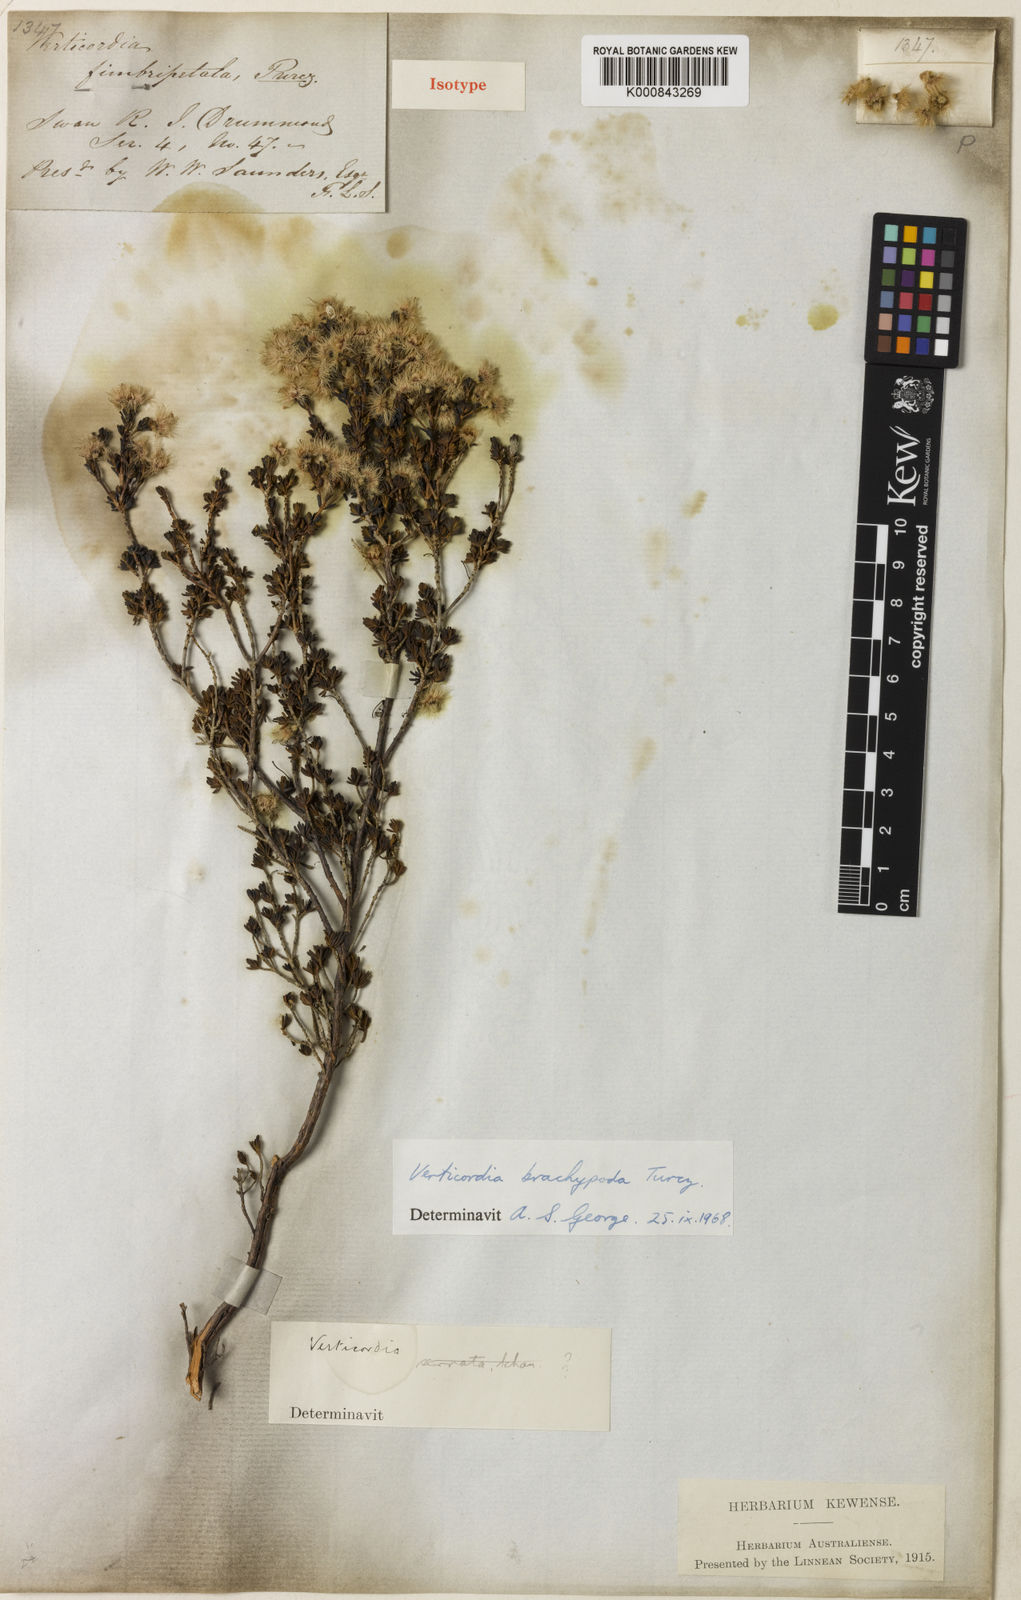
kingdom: Plantae
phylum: Tracheophyta
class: Magnoliopsida
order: Myrtales
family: Myrtaceae
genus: Verticordia
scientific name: Verticordia brachypoda
